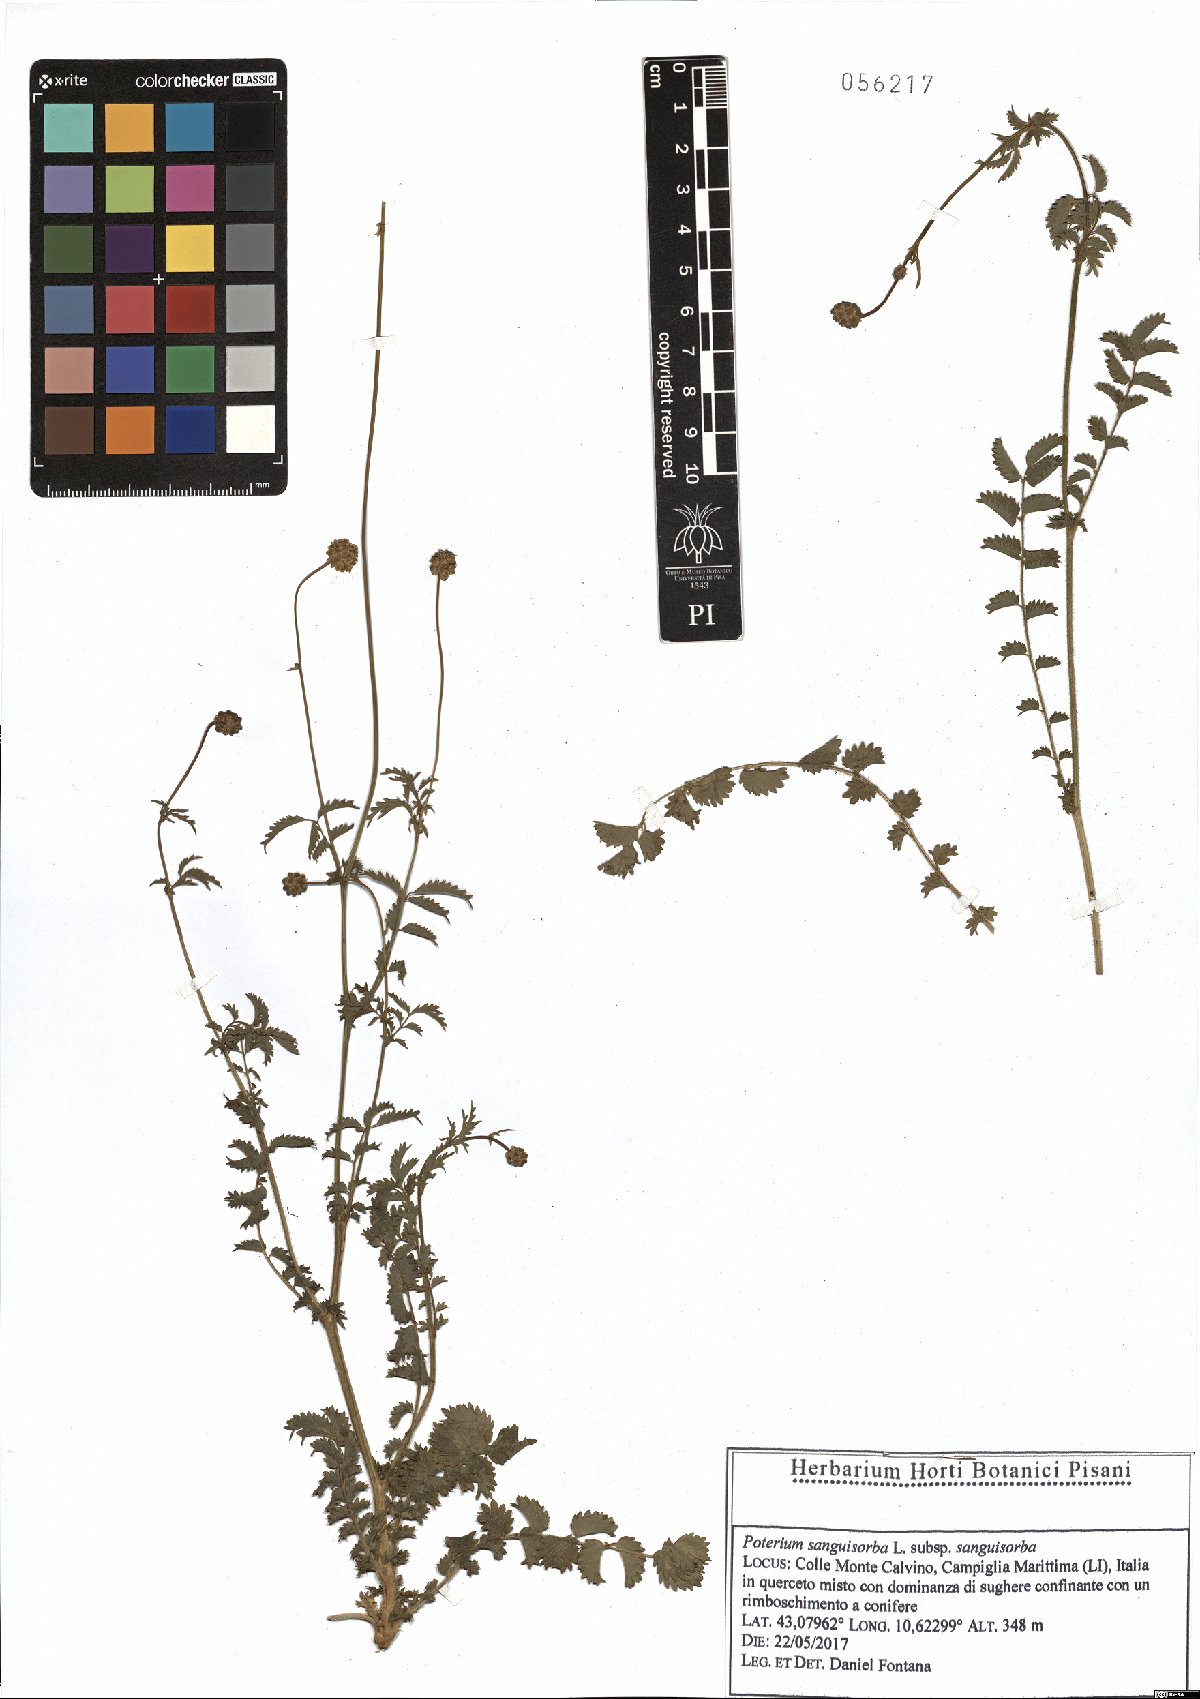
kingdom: Plantae
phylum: Tracheophyta
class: Magnoliopsida
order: Rosales
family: Rosaceae
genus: Poterium
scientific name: Poterium sanguisorba
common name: Salad burnet
